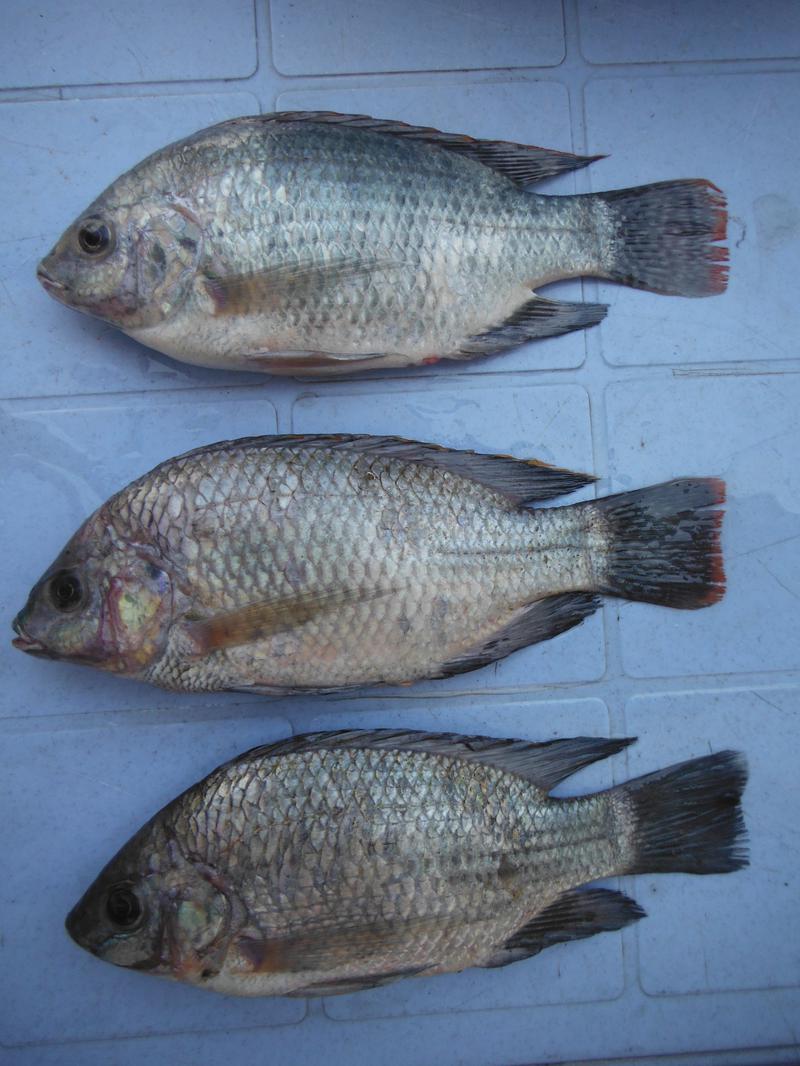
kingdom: Animalia
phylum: Chordata
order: Perciformes
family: Cichlidae
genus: Oreochromis
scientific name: Oreochromis esculentus
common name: Carp
